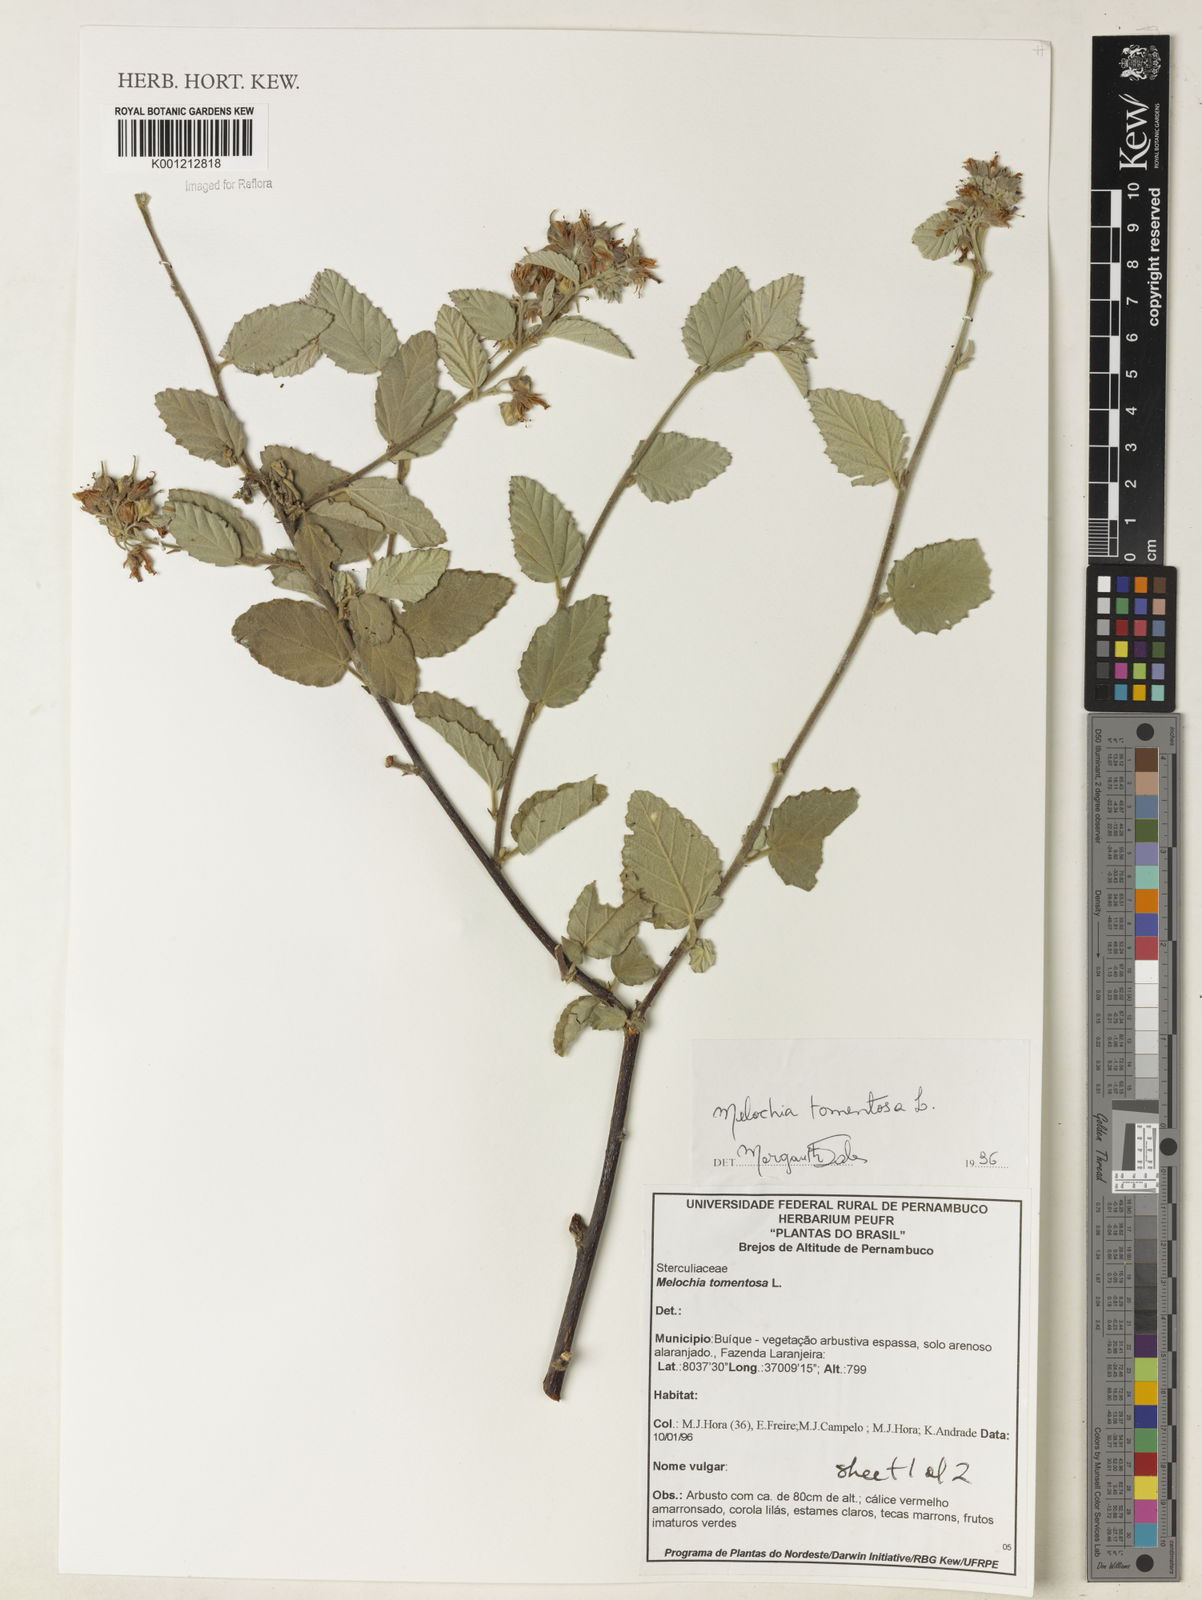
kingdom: Plantae
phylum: Tracheophyta
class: Magnoliopsida
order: Malvales
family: Malvaceae
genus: Melochia
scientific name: Melochia tomentosa
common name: Black torch
